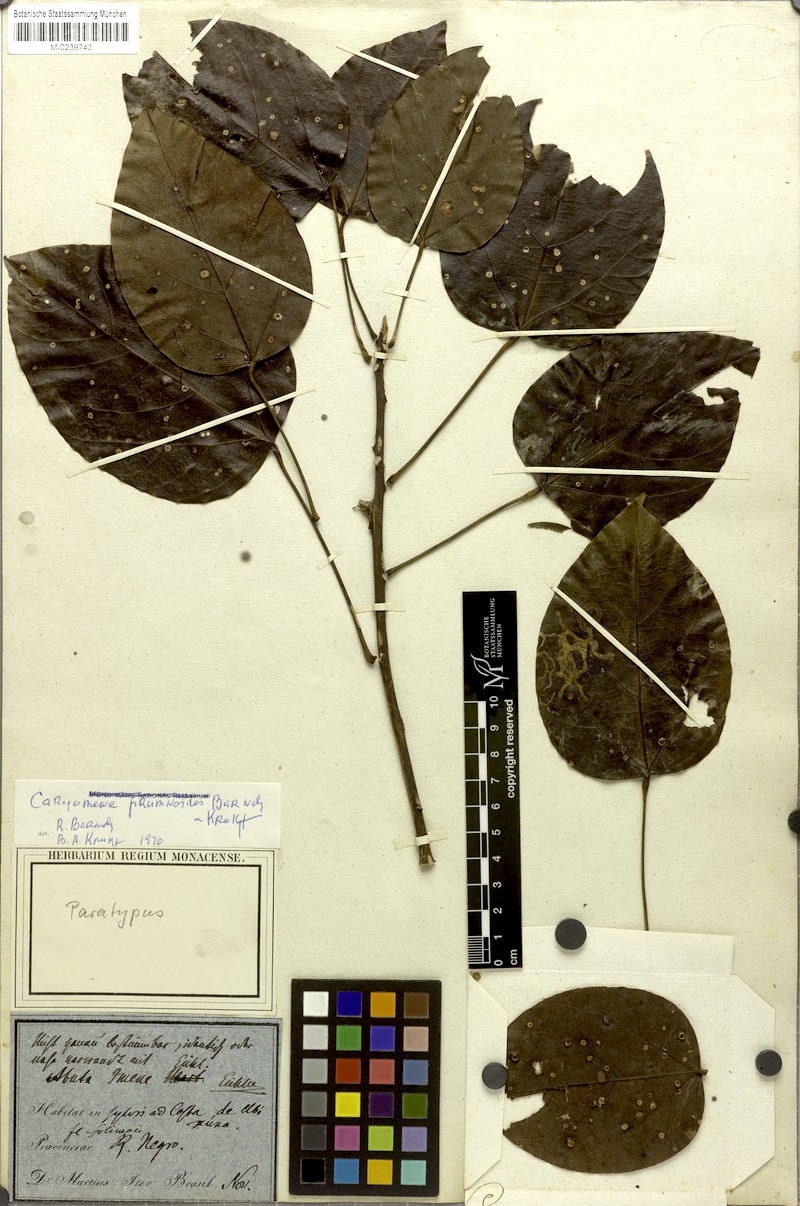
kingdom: Plantae
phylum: Tracheophyta
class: Magnoliopsida
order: Ranunculales
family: Menispermaceae
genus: Caryomene
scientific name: Caryomene prumnoides
